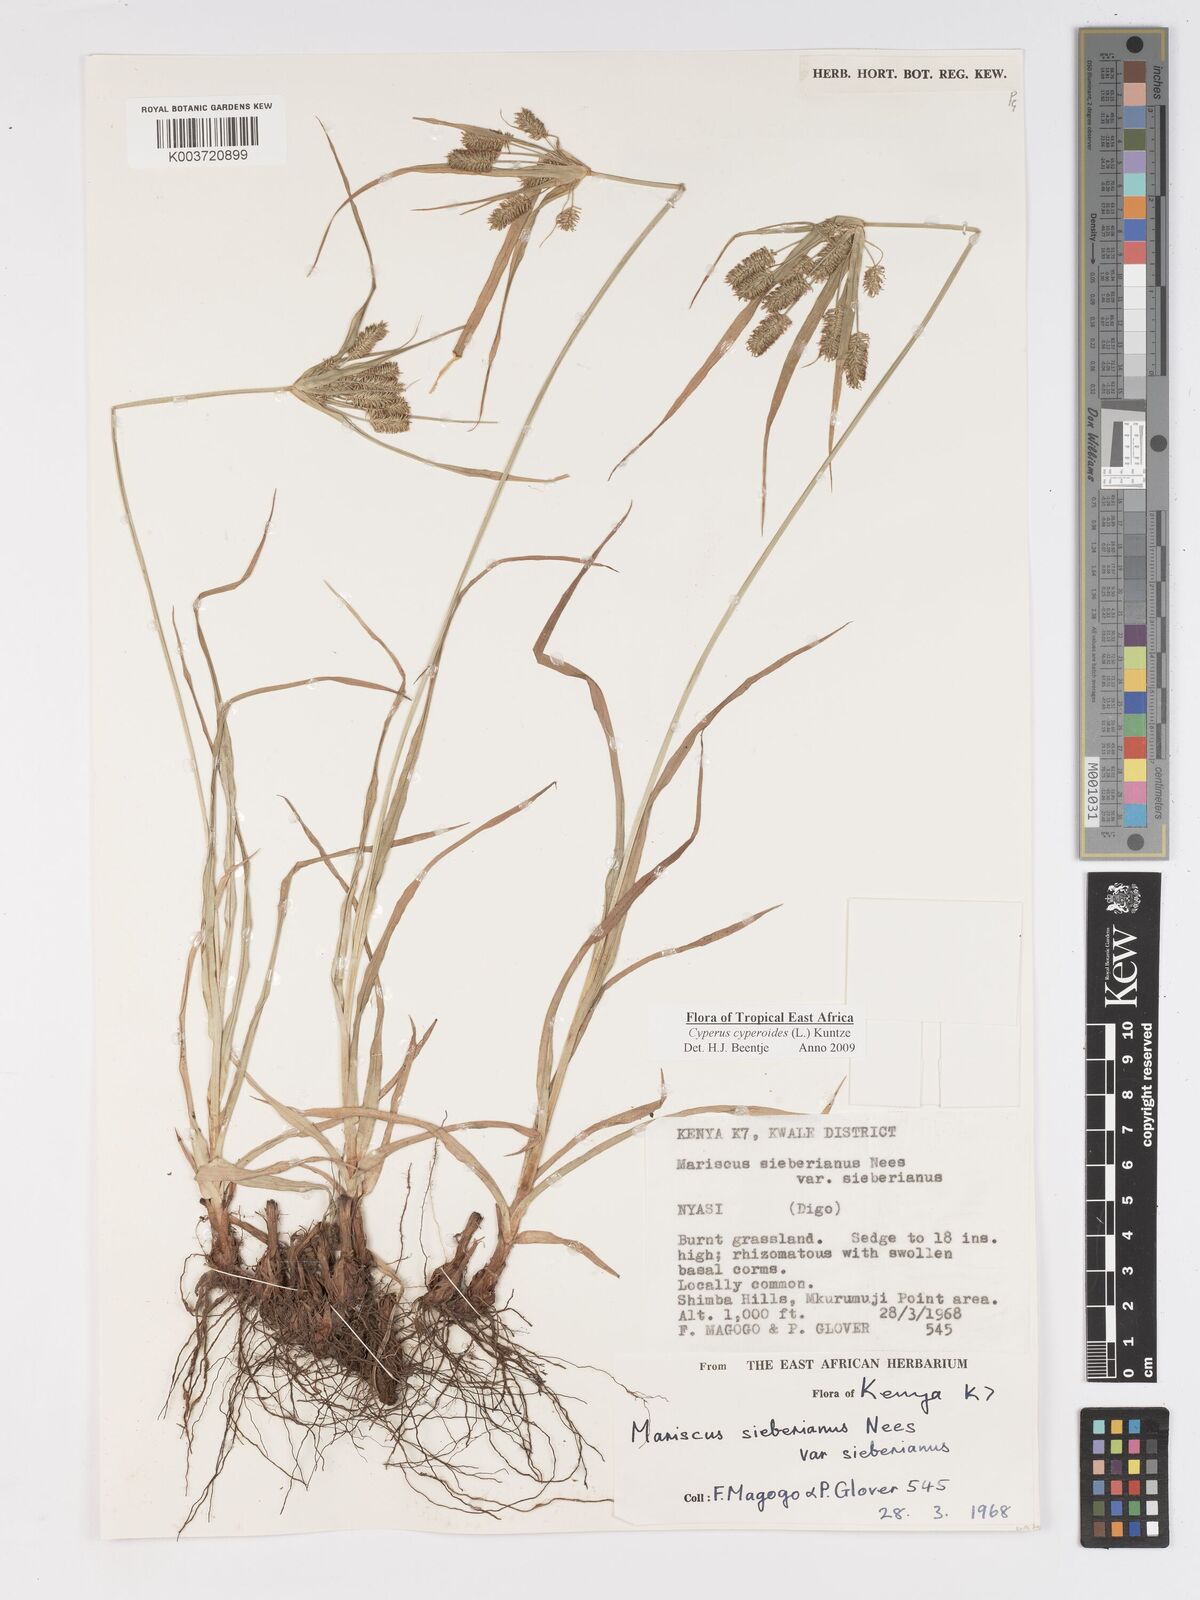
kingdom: Plantae
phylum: Tracheophyta
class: Liliopsida
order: Poales
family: Cyperaceae
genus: Cyperus
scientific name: Cyperus cyperoides
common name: Pacific island flat sedge
